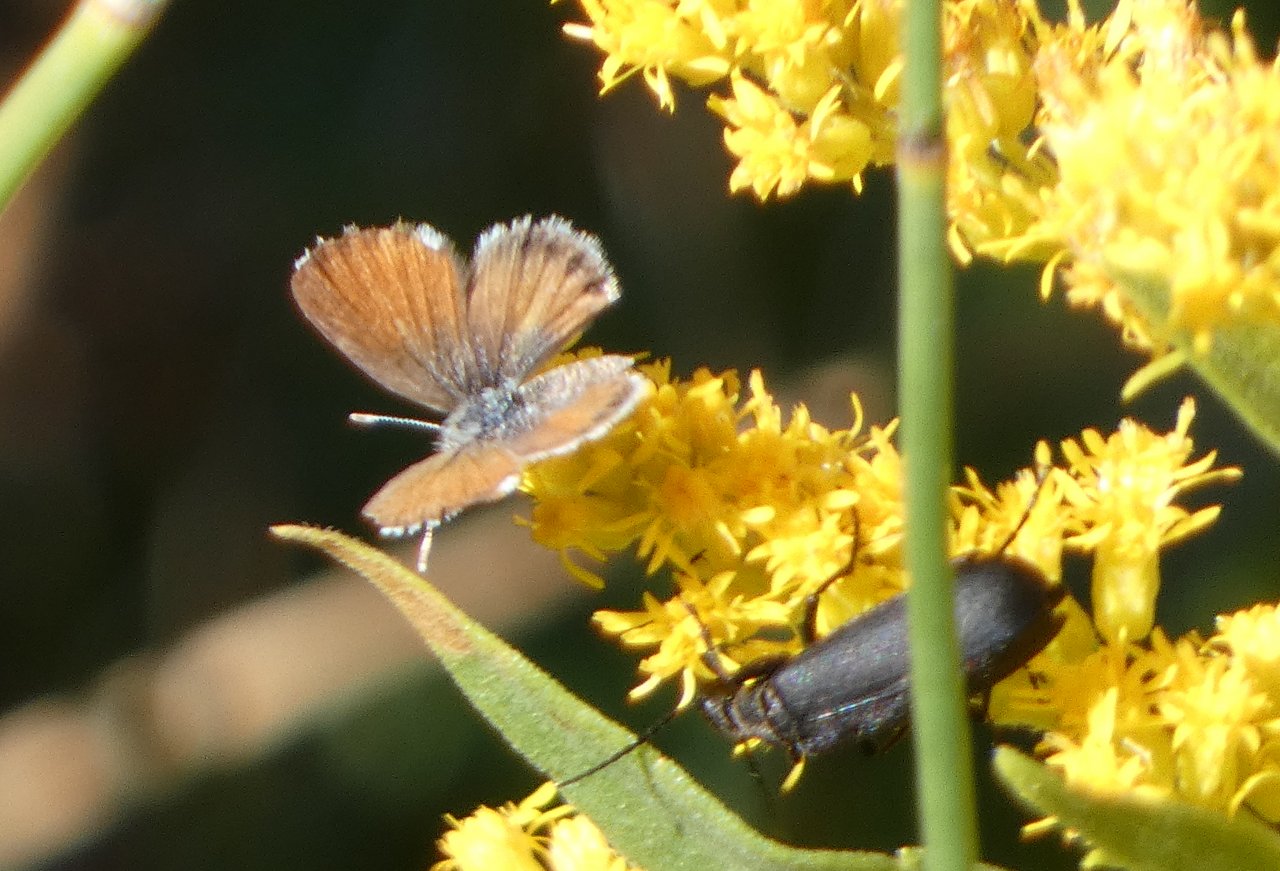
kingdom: Animalia
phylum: Arthropoda
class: Insecta
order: Lepidoptera
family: Lycaenidae
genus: Brephidium
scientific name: Brephidium exilis
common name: Western Pygmy-Blue
